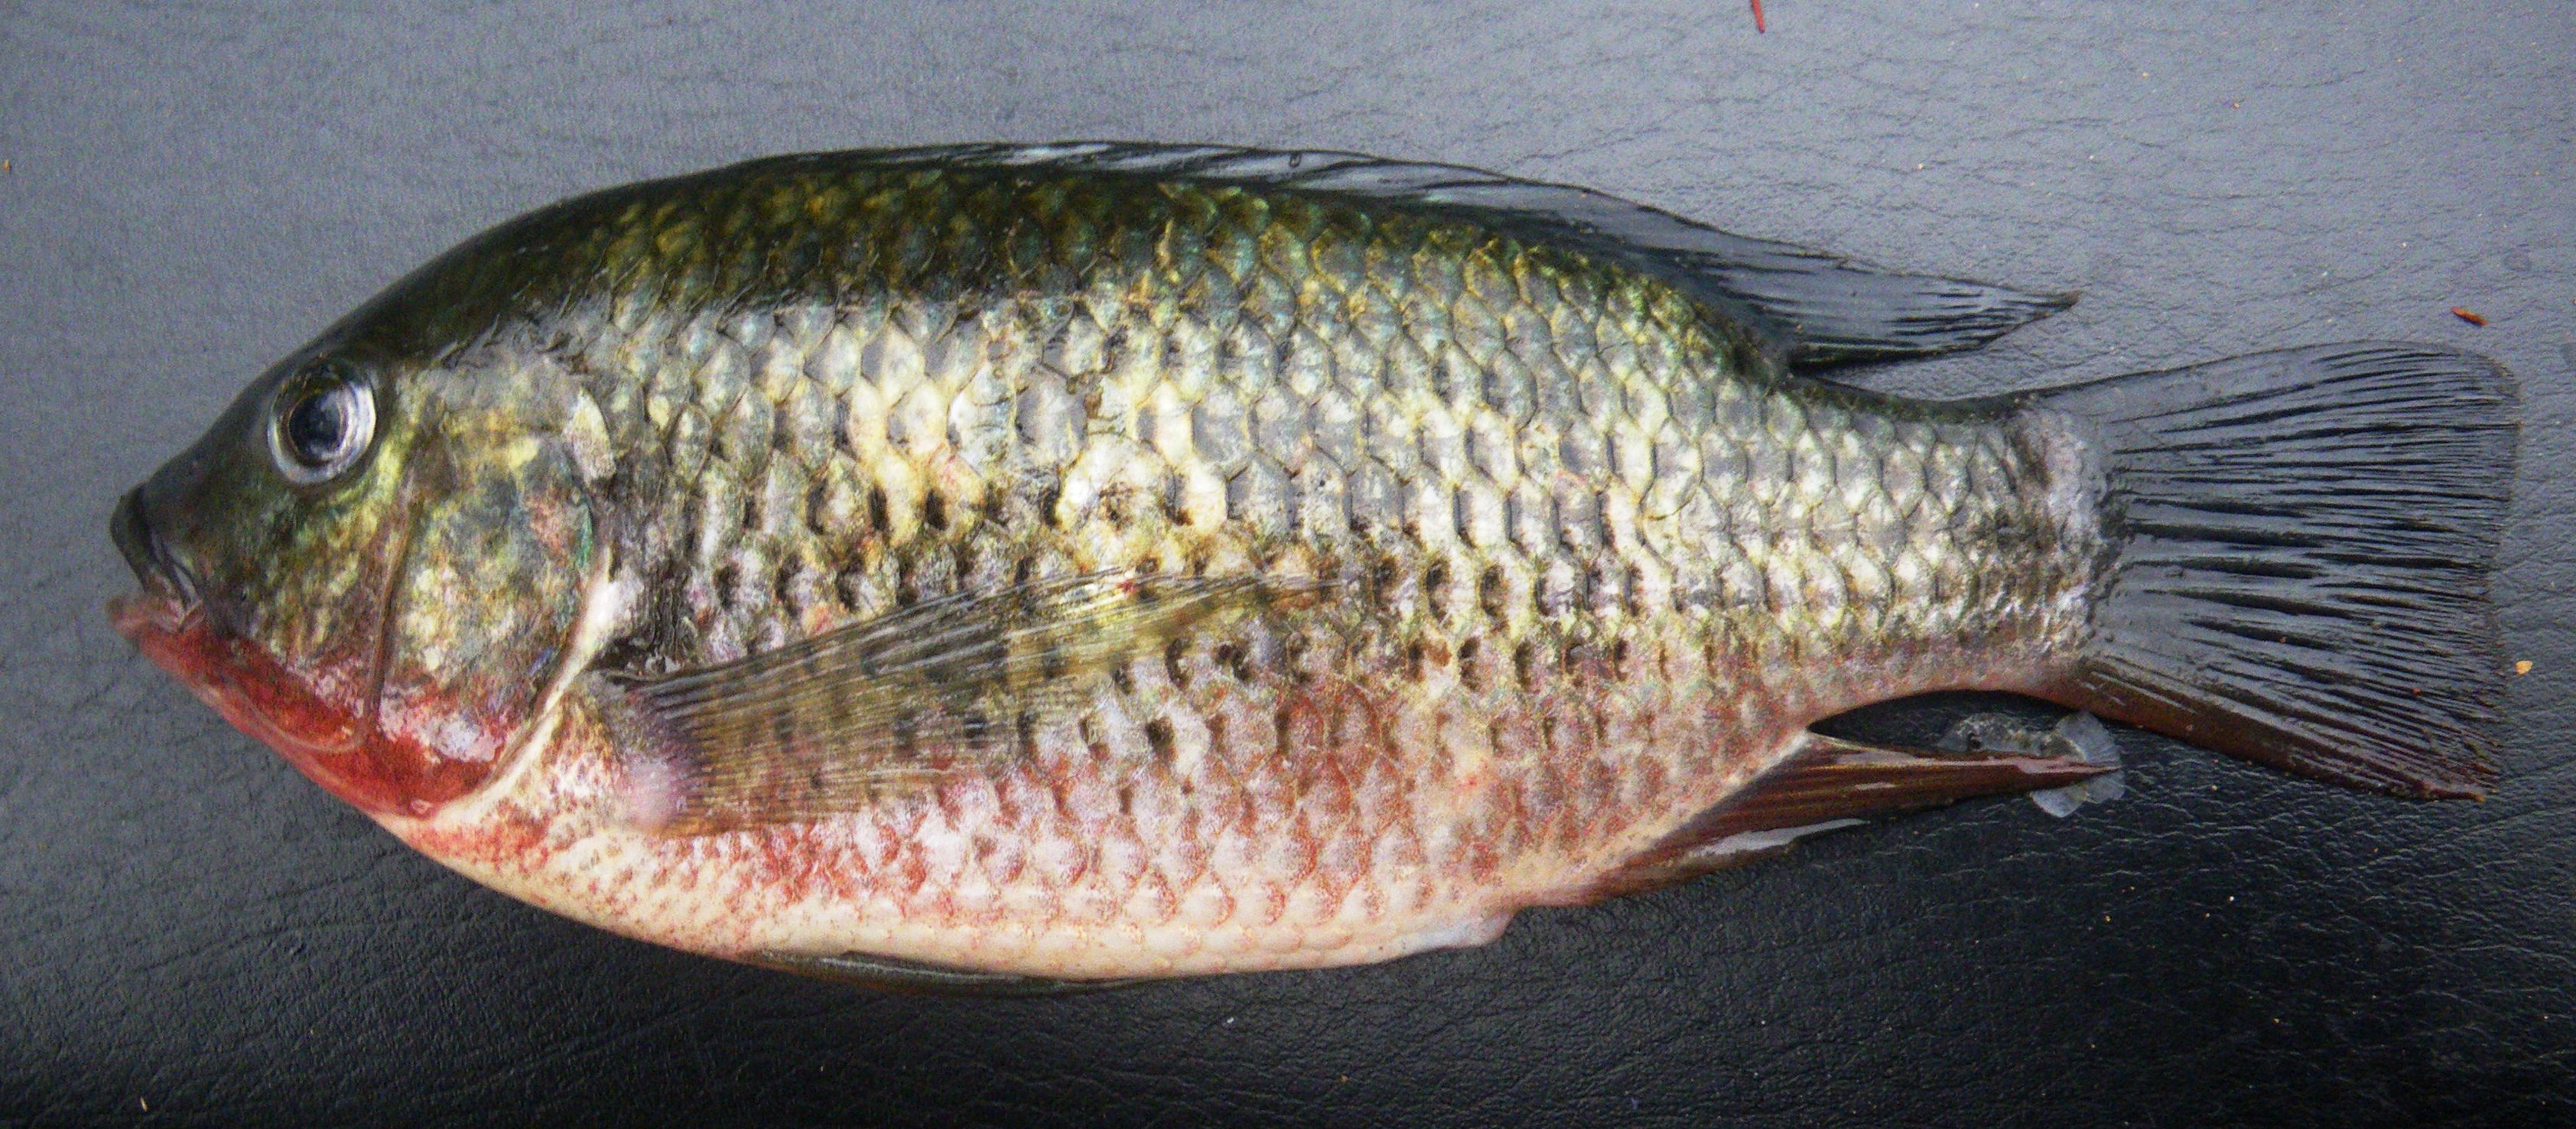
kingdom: Animalia
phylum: Chordata
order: Perciformes
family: Cichlidae
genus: Coptodon
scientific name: Coptodon rendalli
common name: Redbreast tilapia
